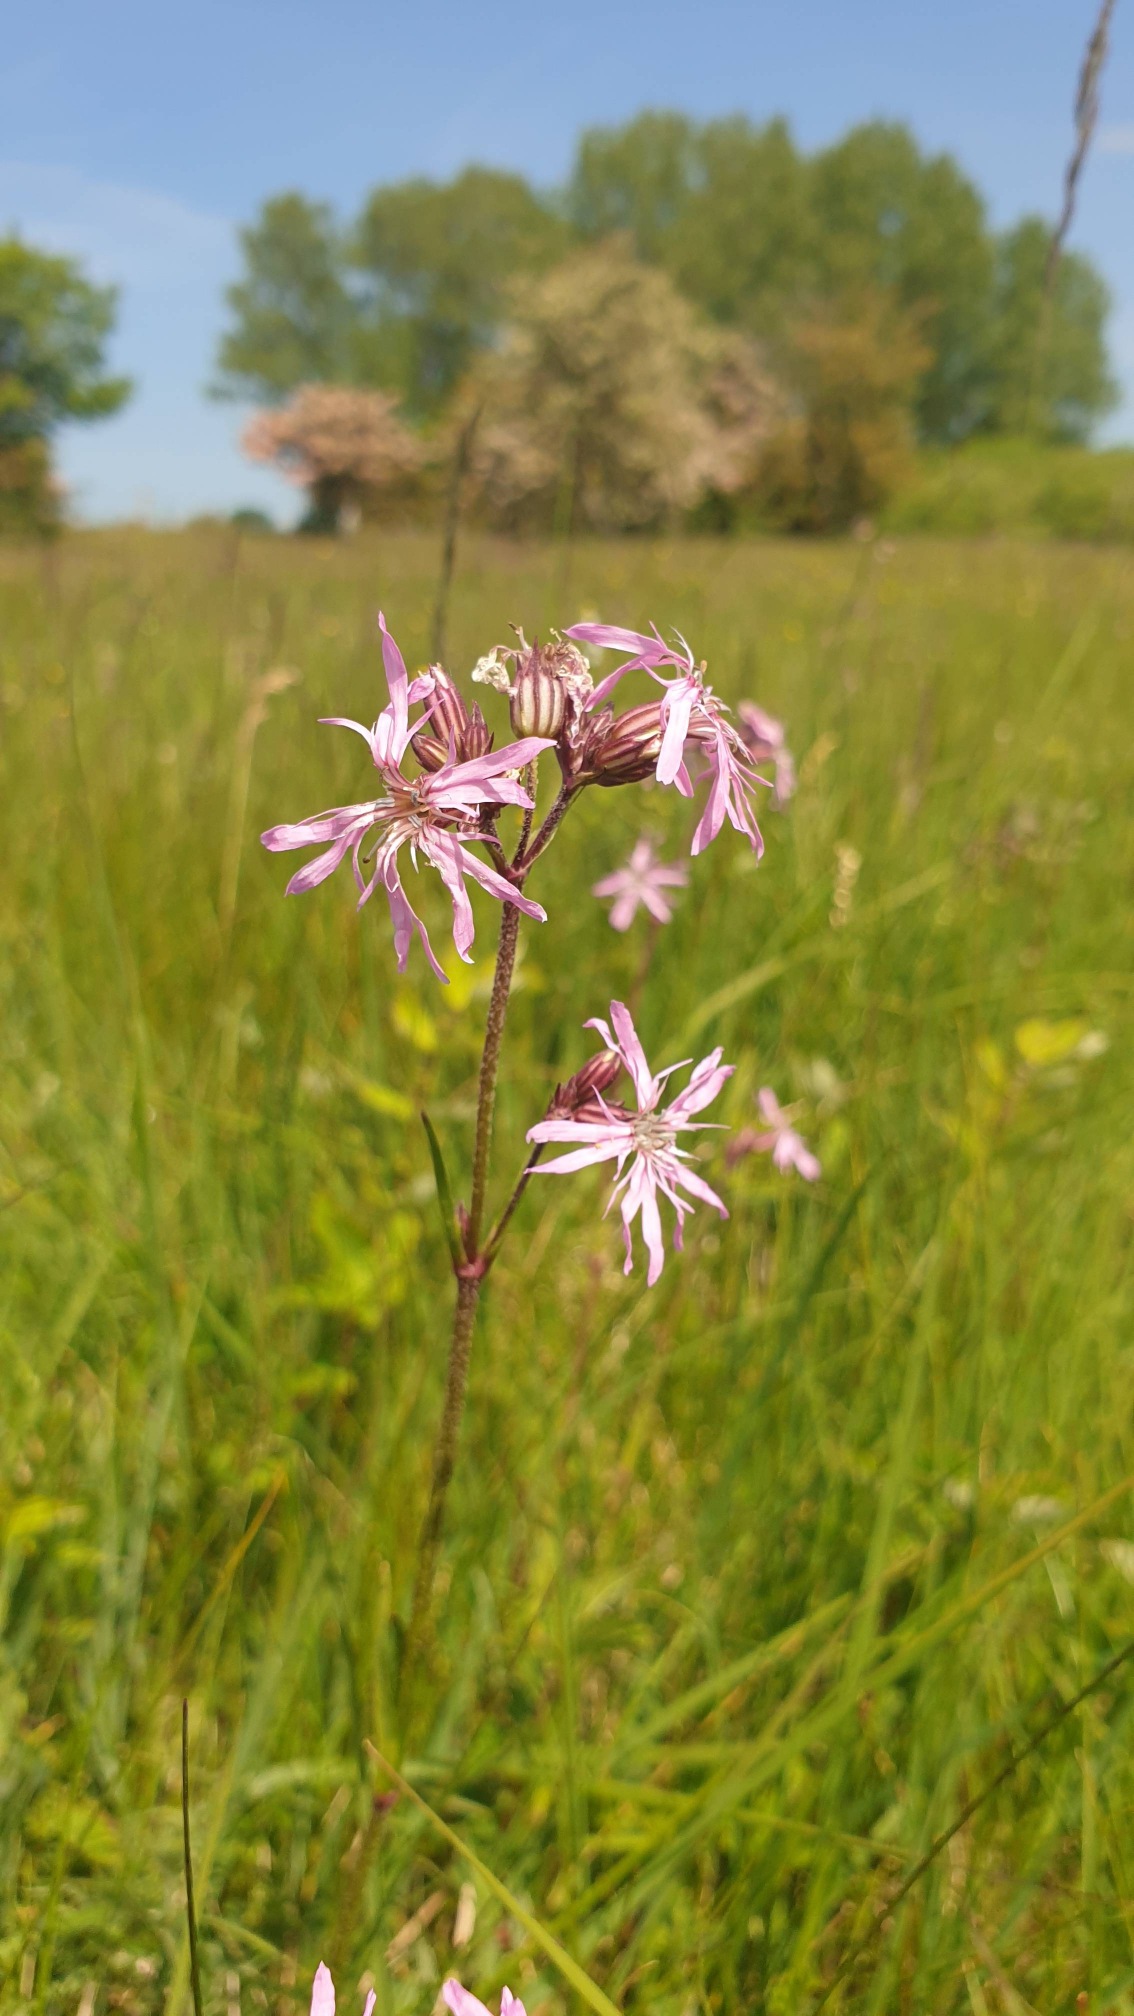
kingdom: Plantae
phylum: Tracheophyta
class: Magnoliopsida
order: Caryophyllales
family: Caryophyllaceae
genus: Silene
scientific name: Silene flos-cuculi
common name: Trævlekrone
